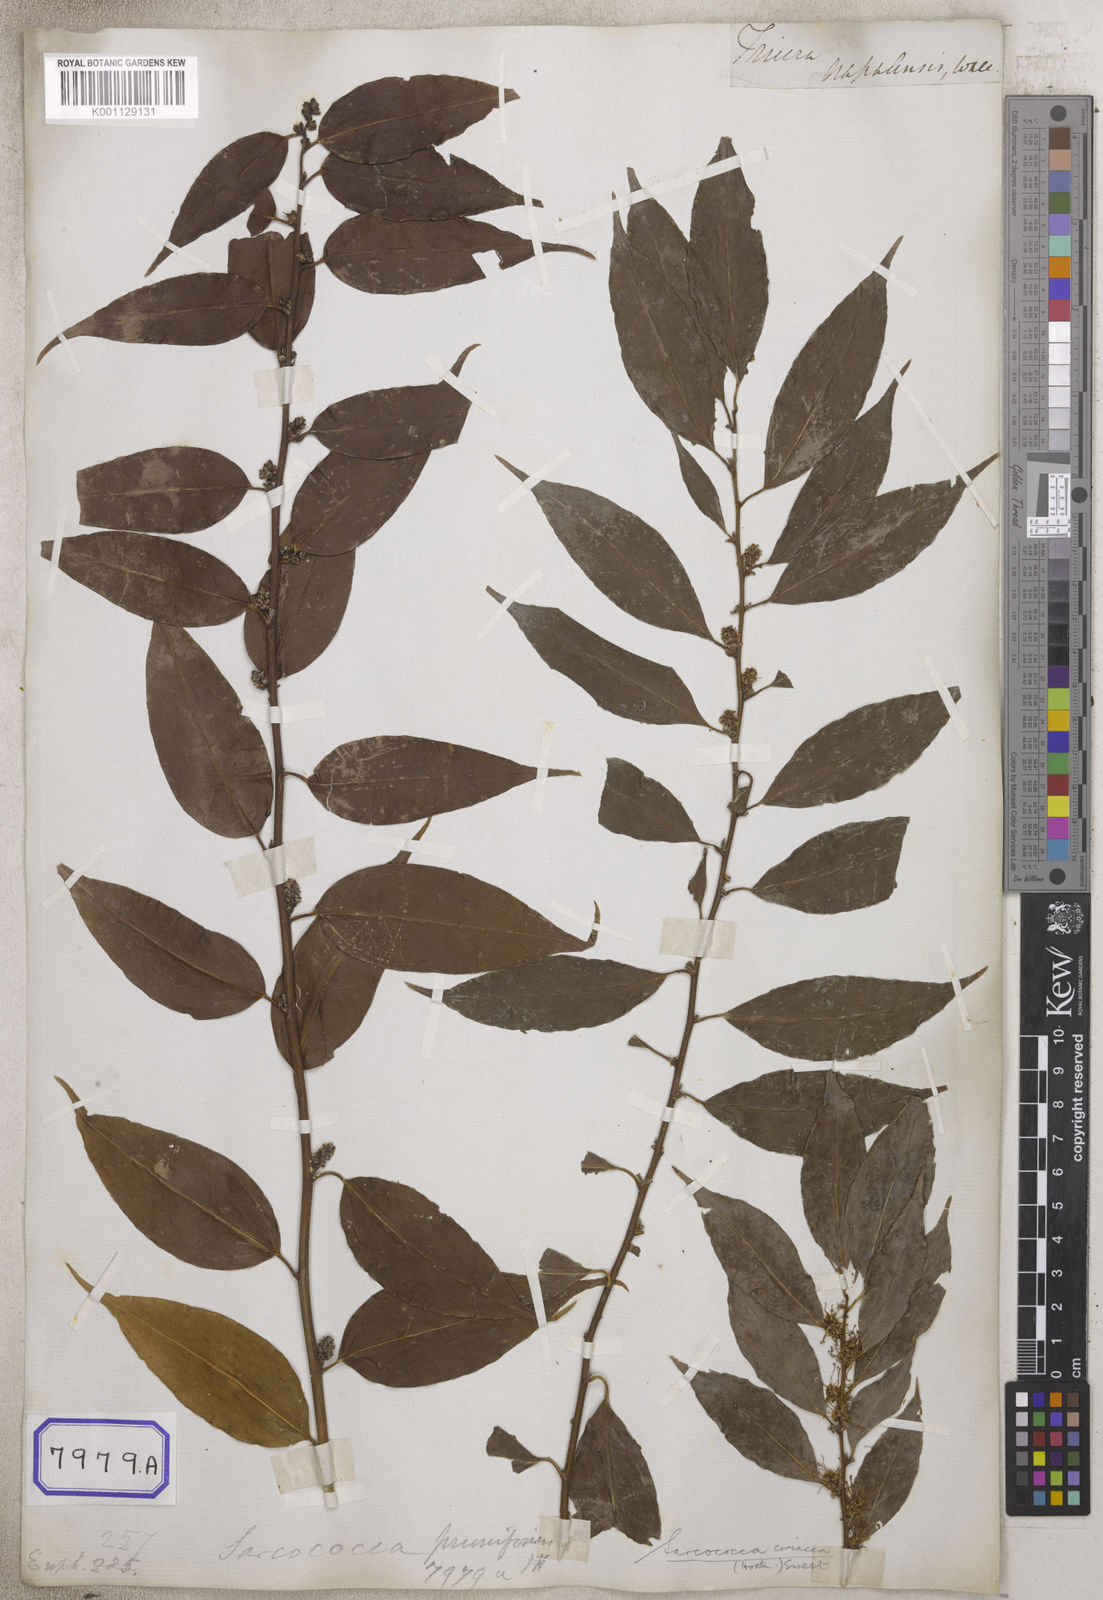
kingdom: Plantae
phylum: Tracheophyta
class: Magnoliopsida
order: Malpighiales
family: Euphorbiaceae
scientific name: Euphorbiaceae
